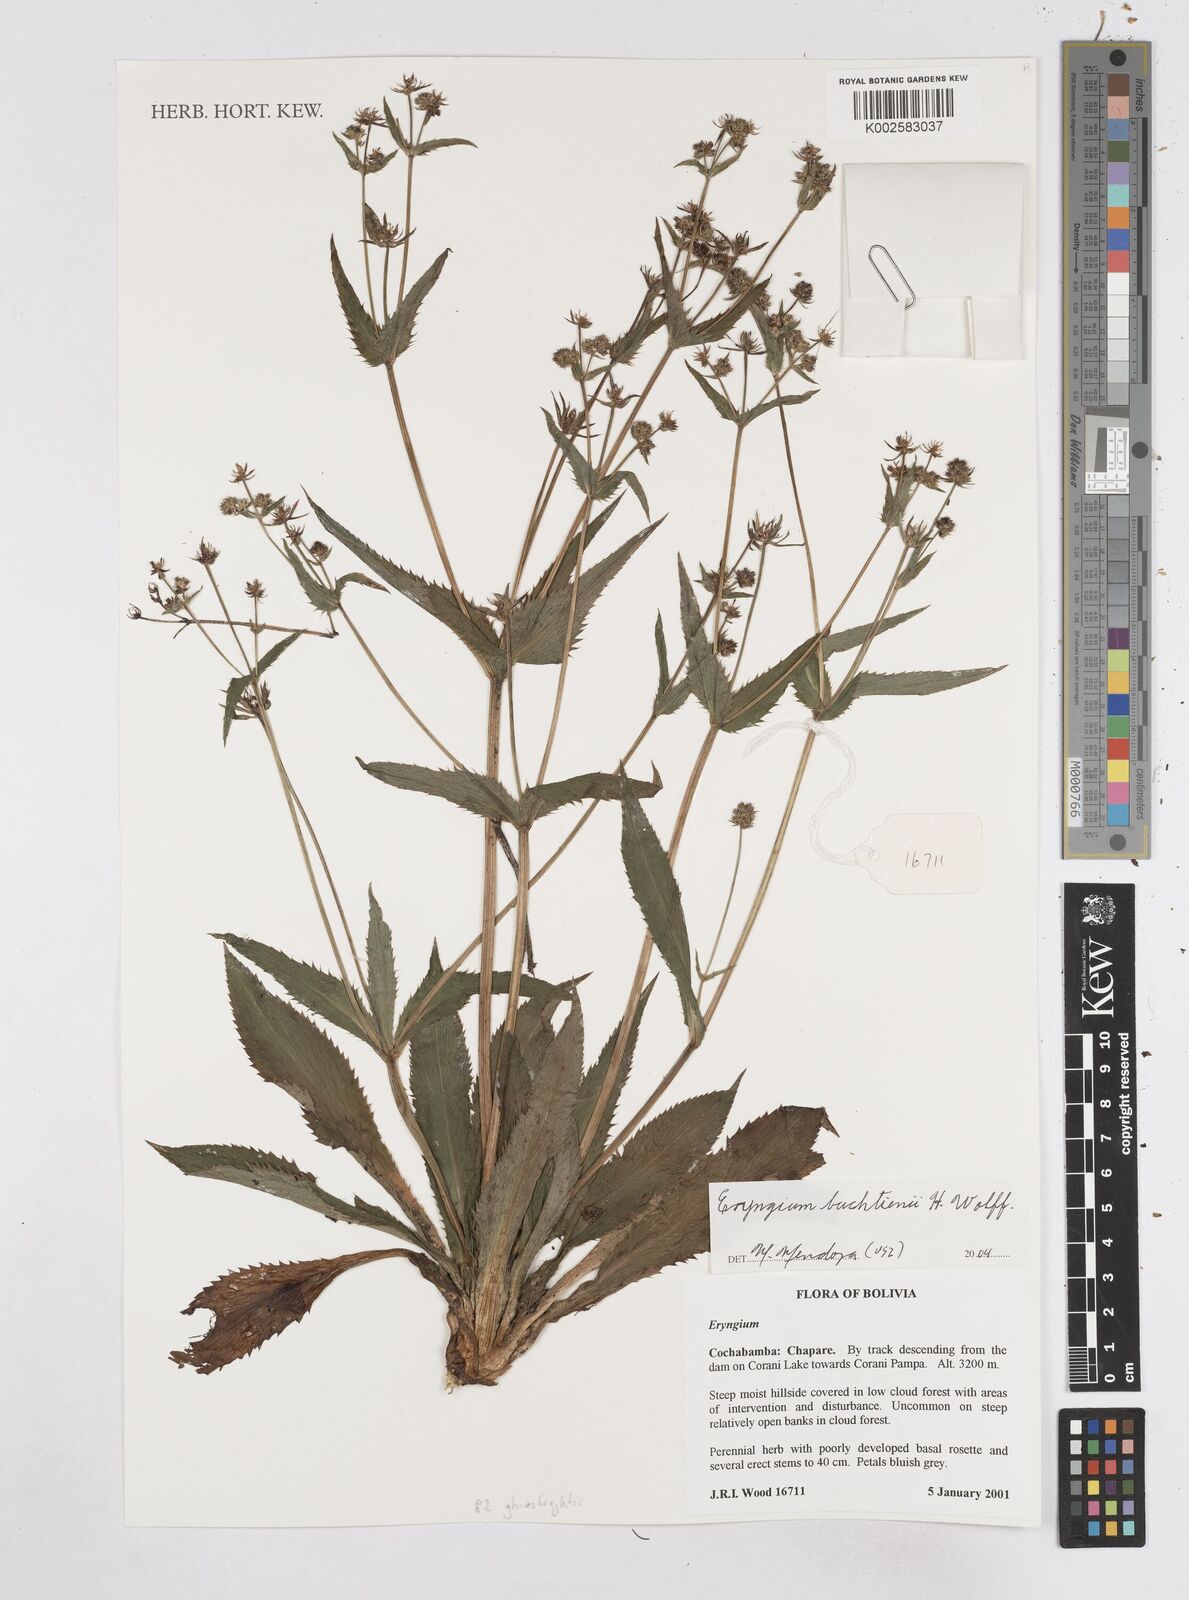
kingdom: Plantae
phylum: Tracheophyta
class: Magnoliopsida
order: Apiales
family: Apiaceae
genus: Eryngium
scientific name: Eryngium ghiesbreghtii
